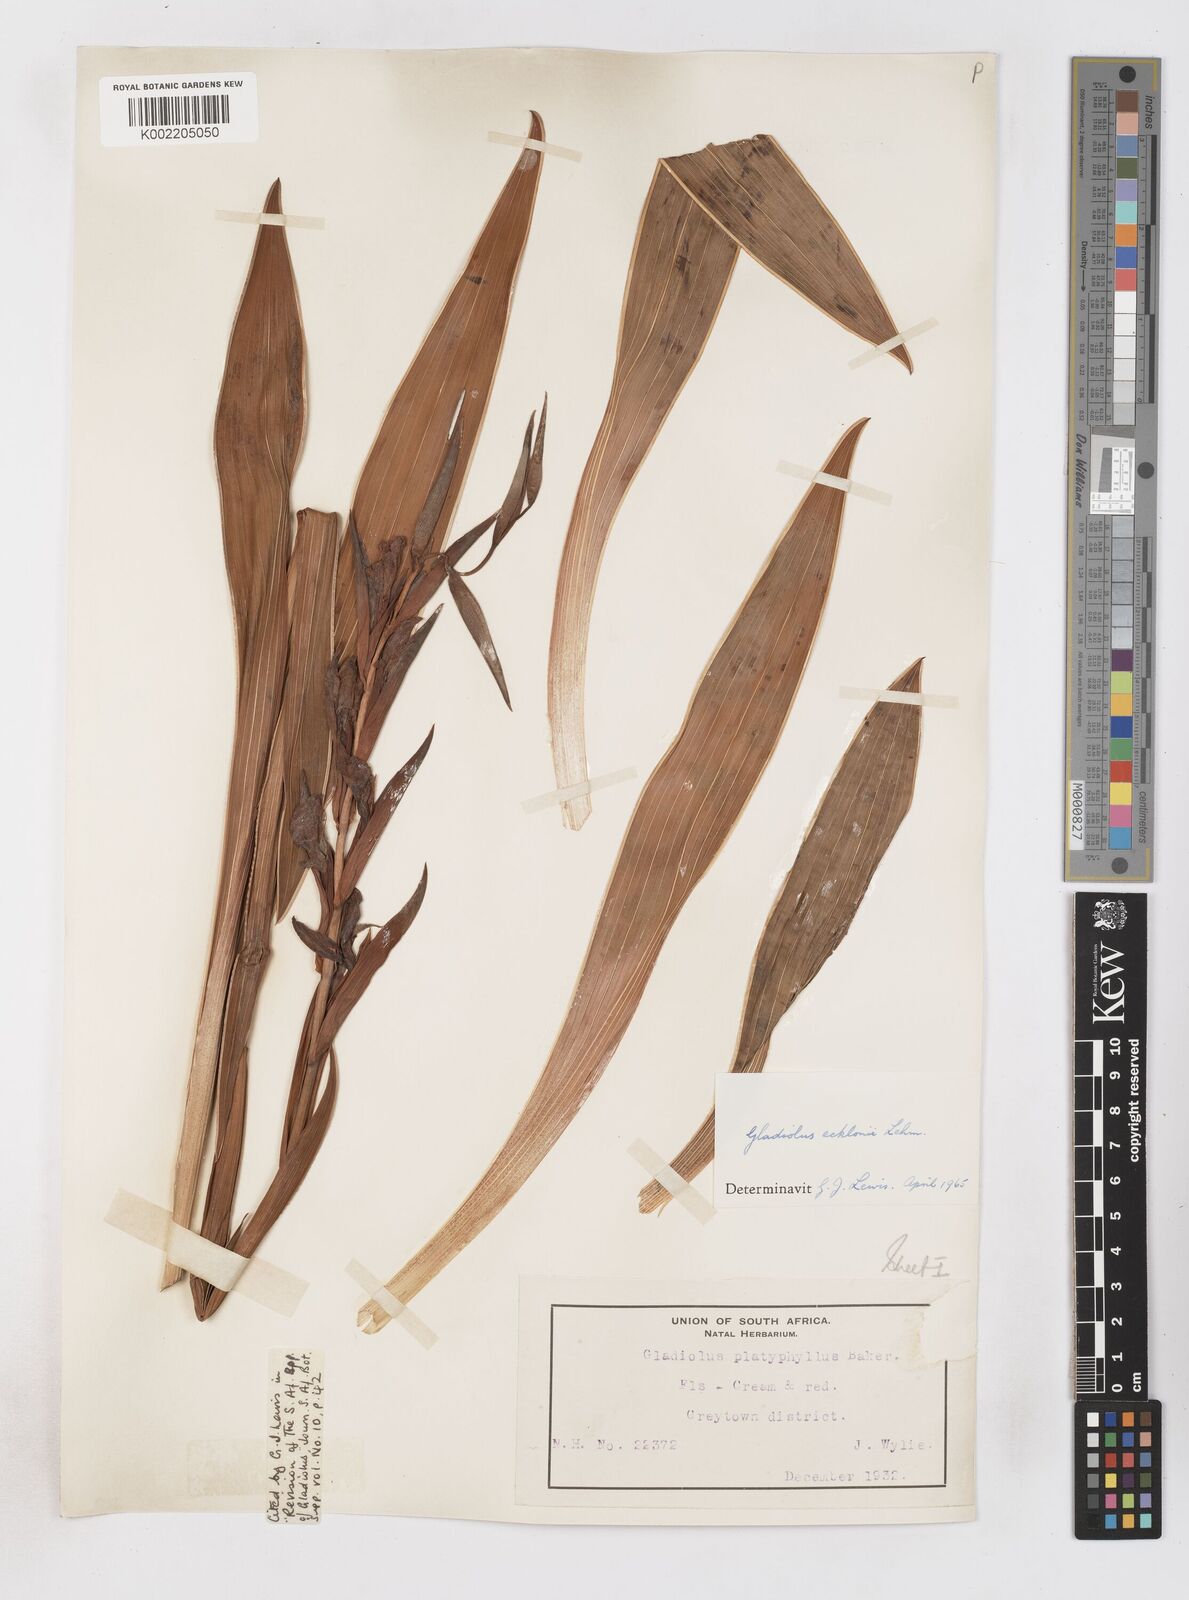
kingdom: Plantae
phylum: Tracheophyta
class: Liliopsida
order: Asparagales
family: Iridaceae
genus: Gladiolus
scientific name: Gladiolus ecklonii
